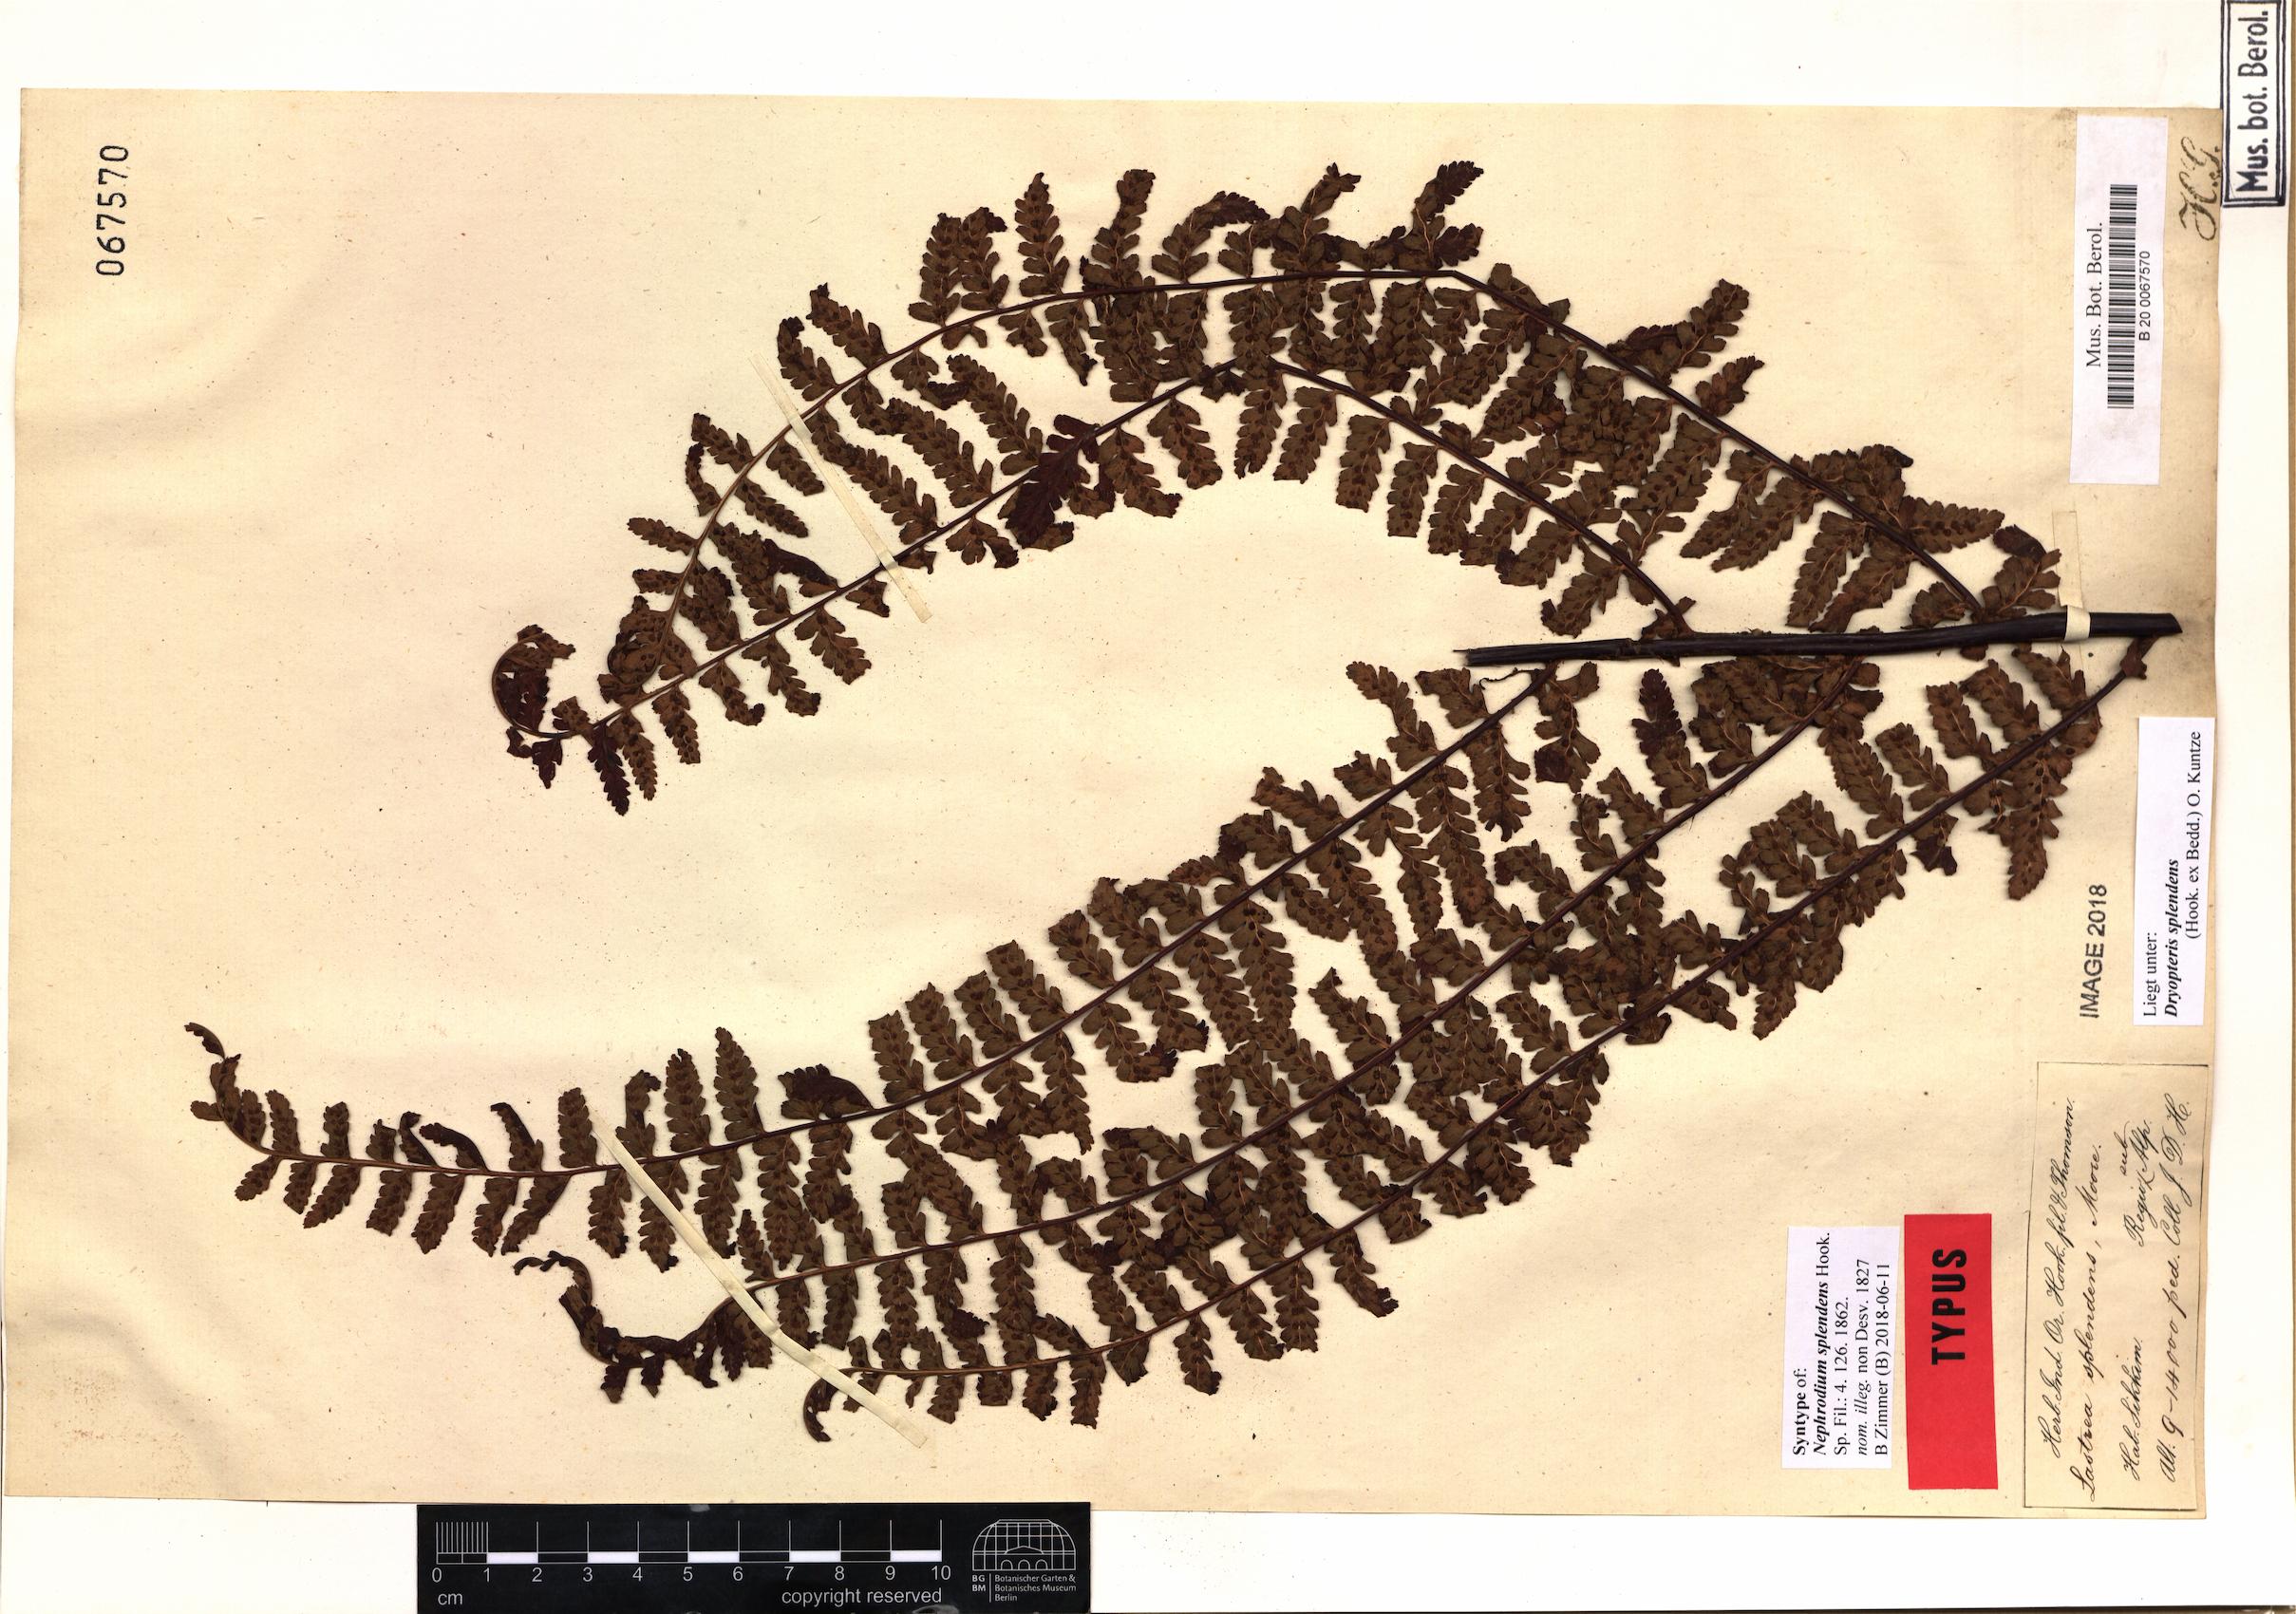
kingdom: Plantae
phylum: Tracheophyta
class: Polypodiopsida
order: Polypodiales
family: Dryopteridaceae
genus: Dryopteris
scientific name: Dryopteris splendens
